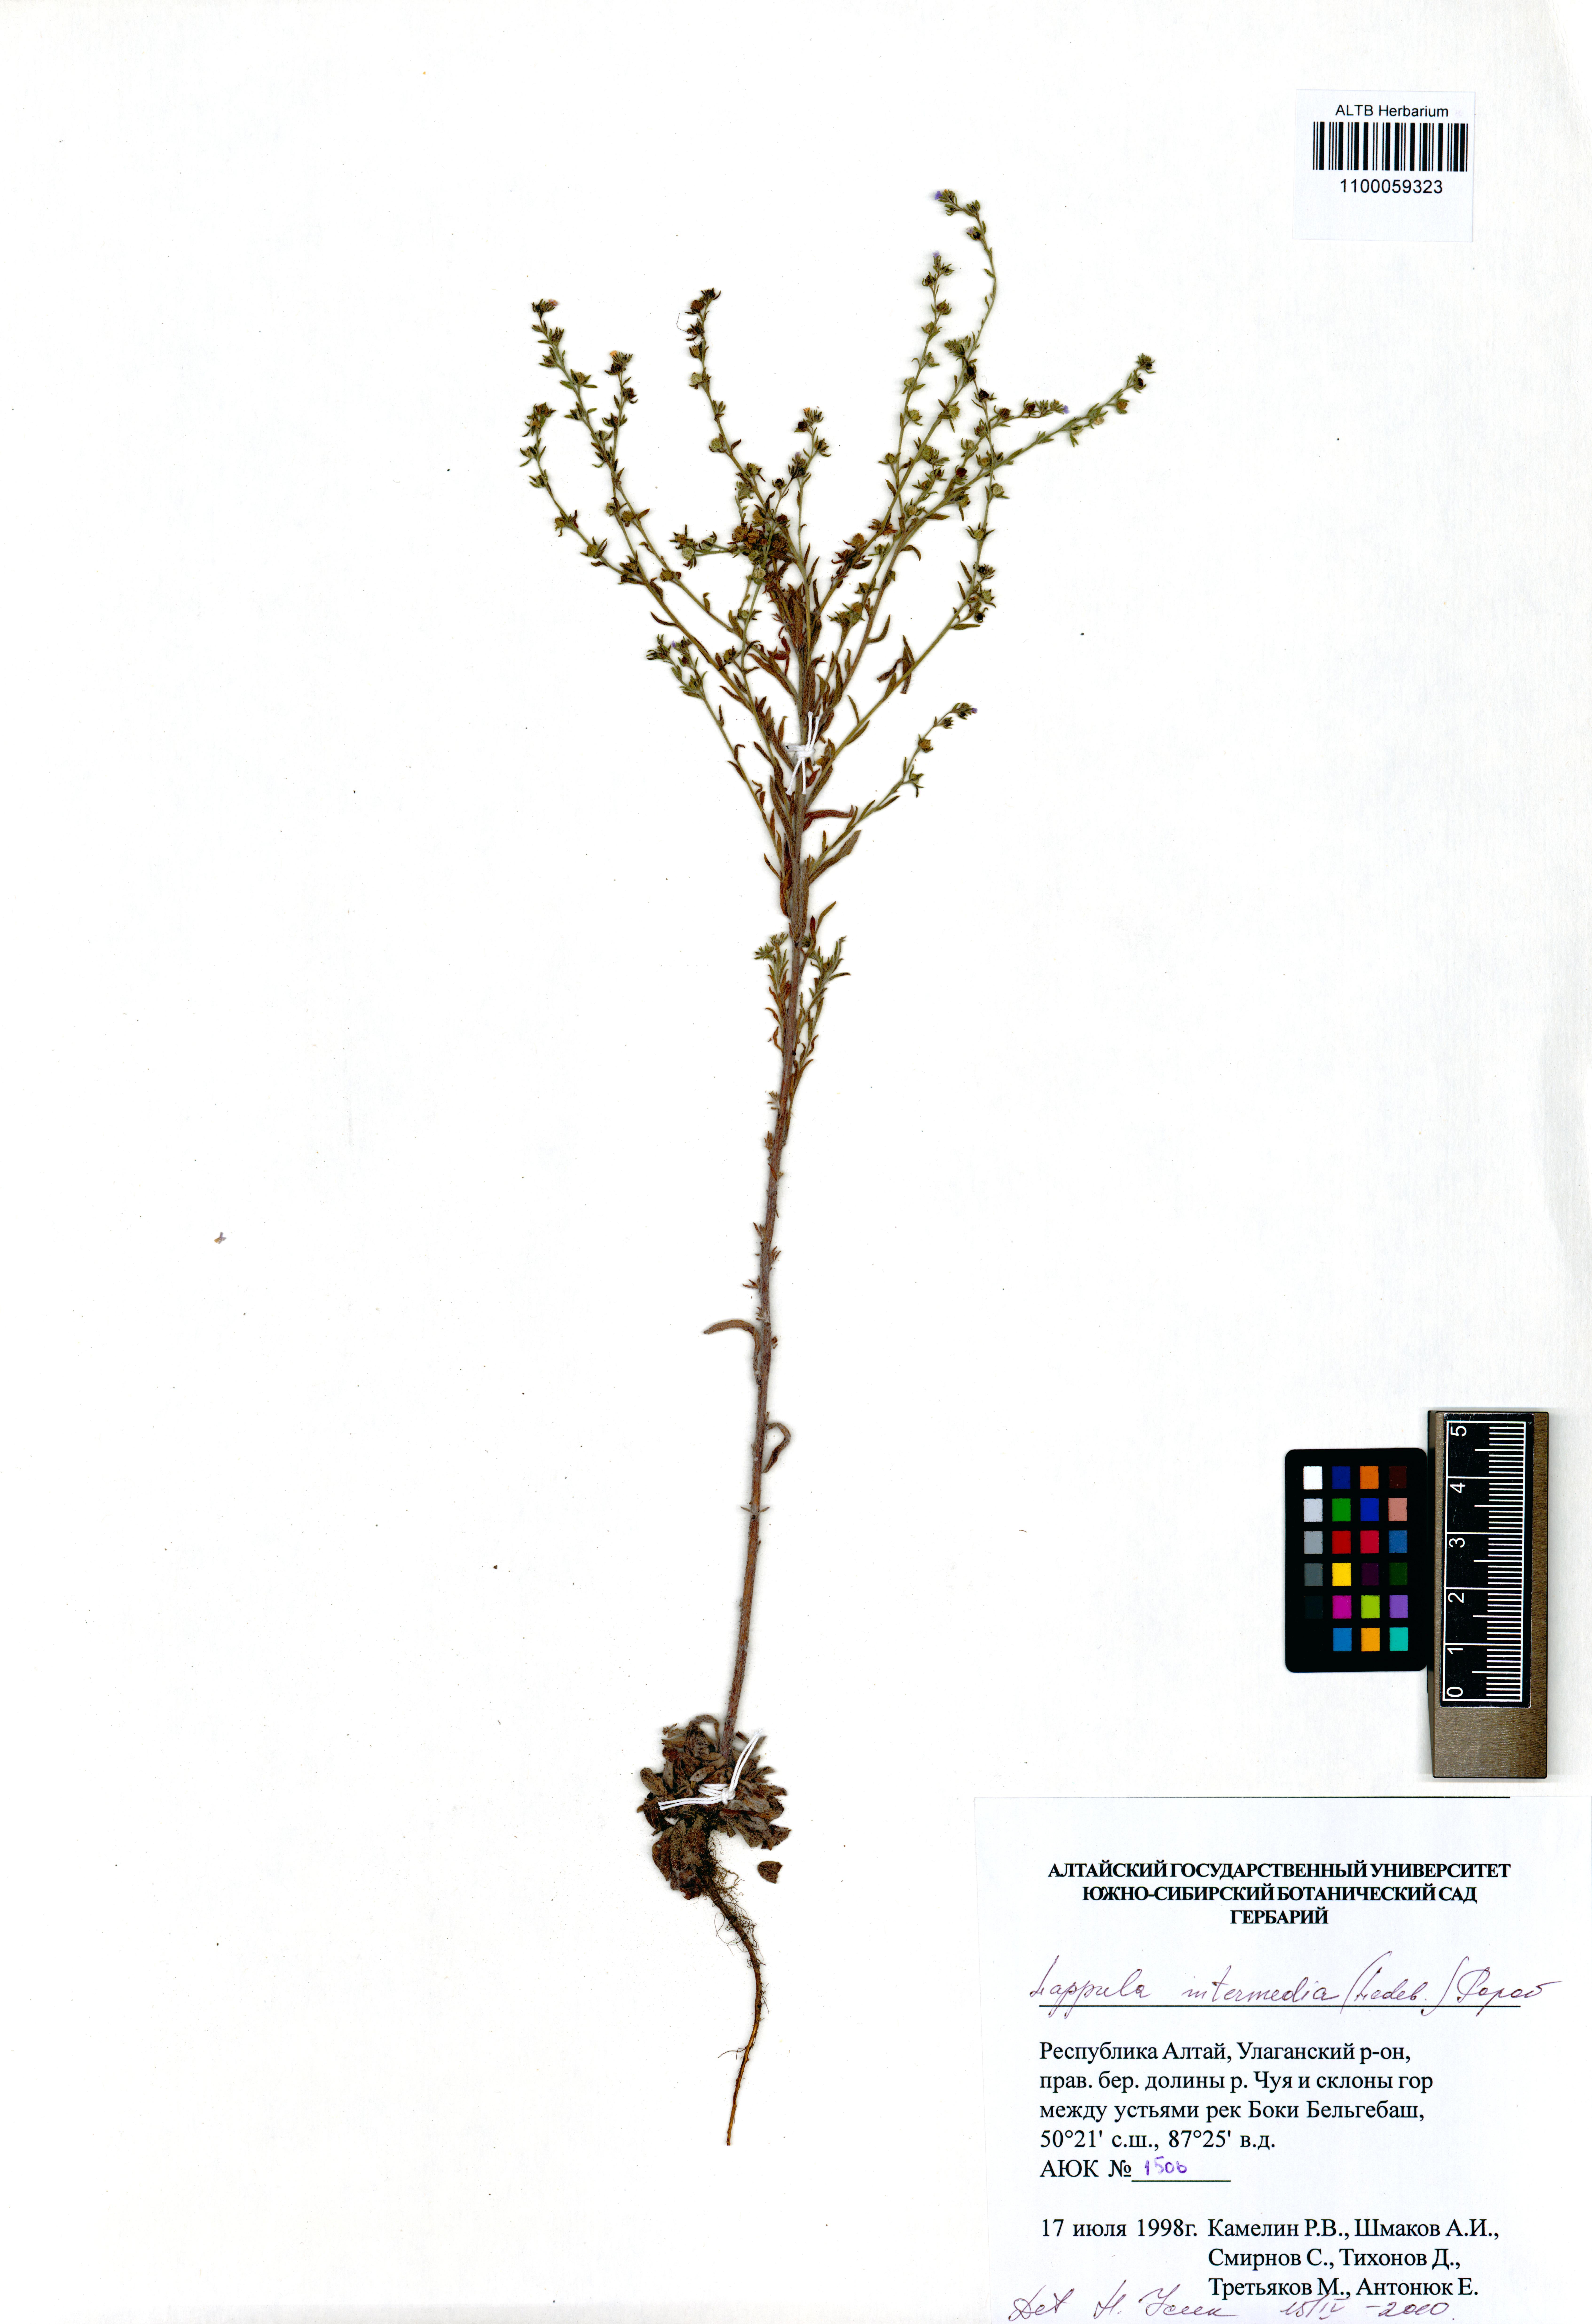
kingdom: Plantae
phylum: Tracheophyta
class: Magnoliopsida
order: Boraginales
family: Boraginaceae
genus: Lappula
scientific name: Lappula intermedia
